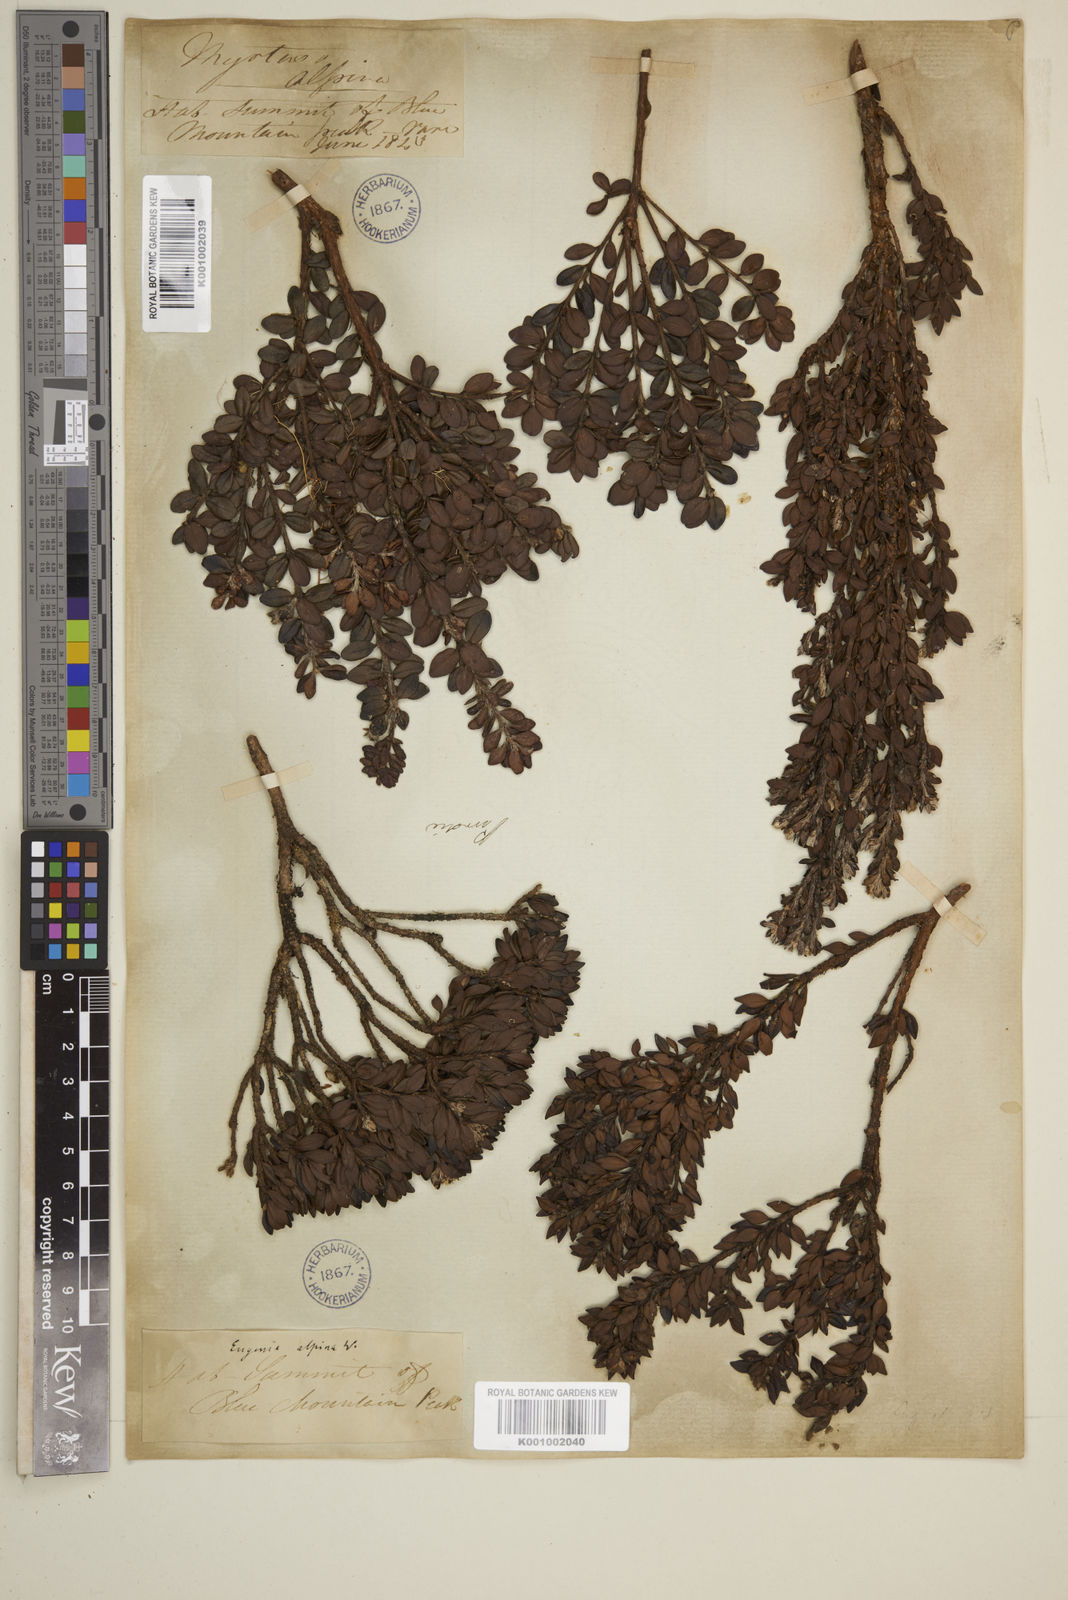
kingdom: Plantae
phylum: Tracheophyta
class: Magnoliopsida
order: Myrtales
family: Myrtaceae
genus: Eugenia
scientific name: Eugenia alpina
